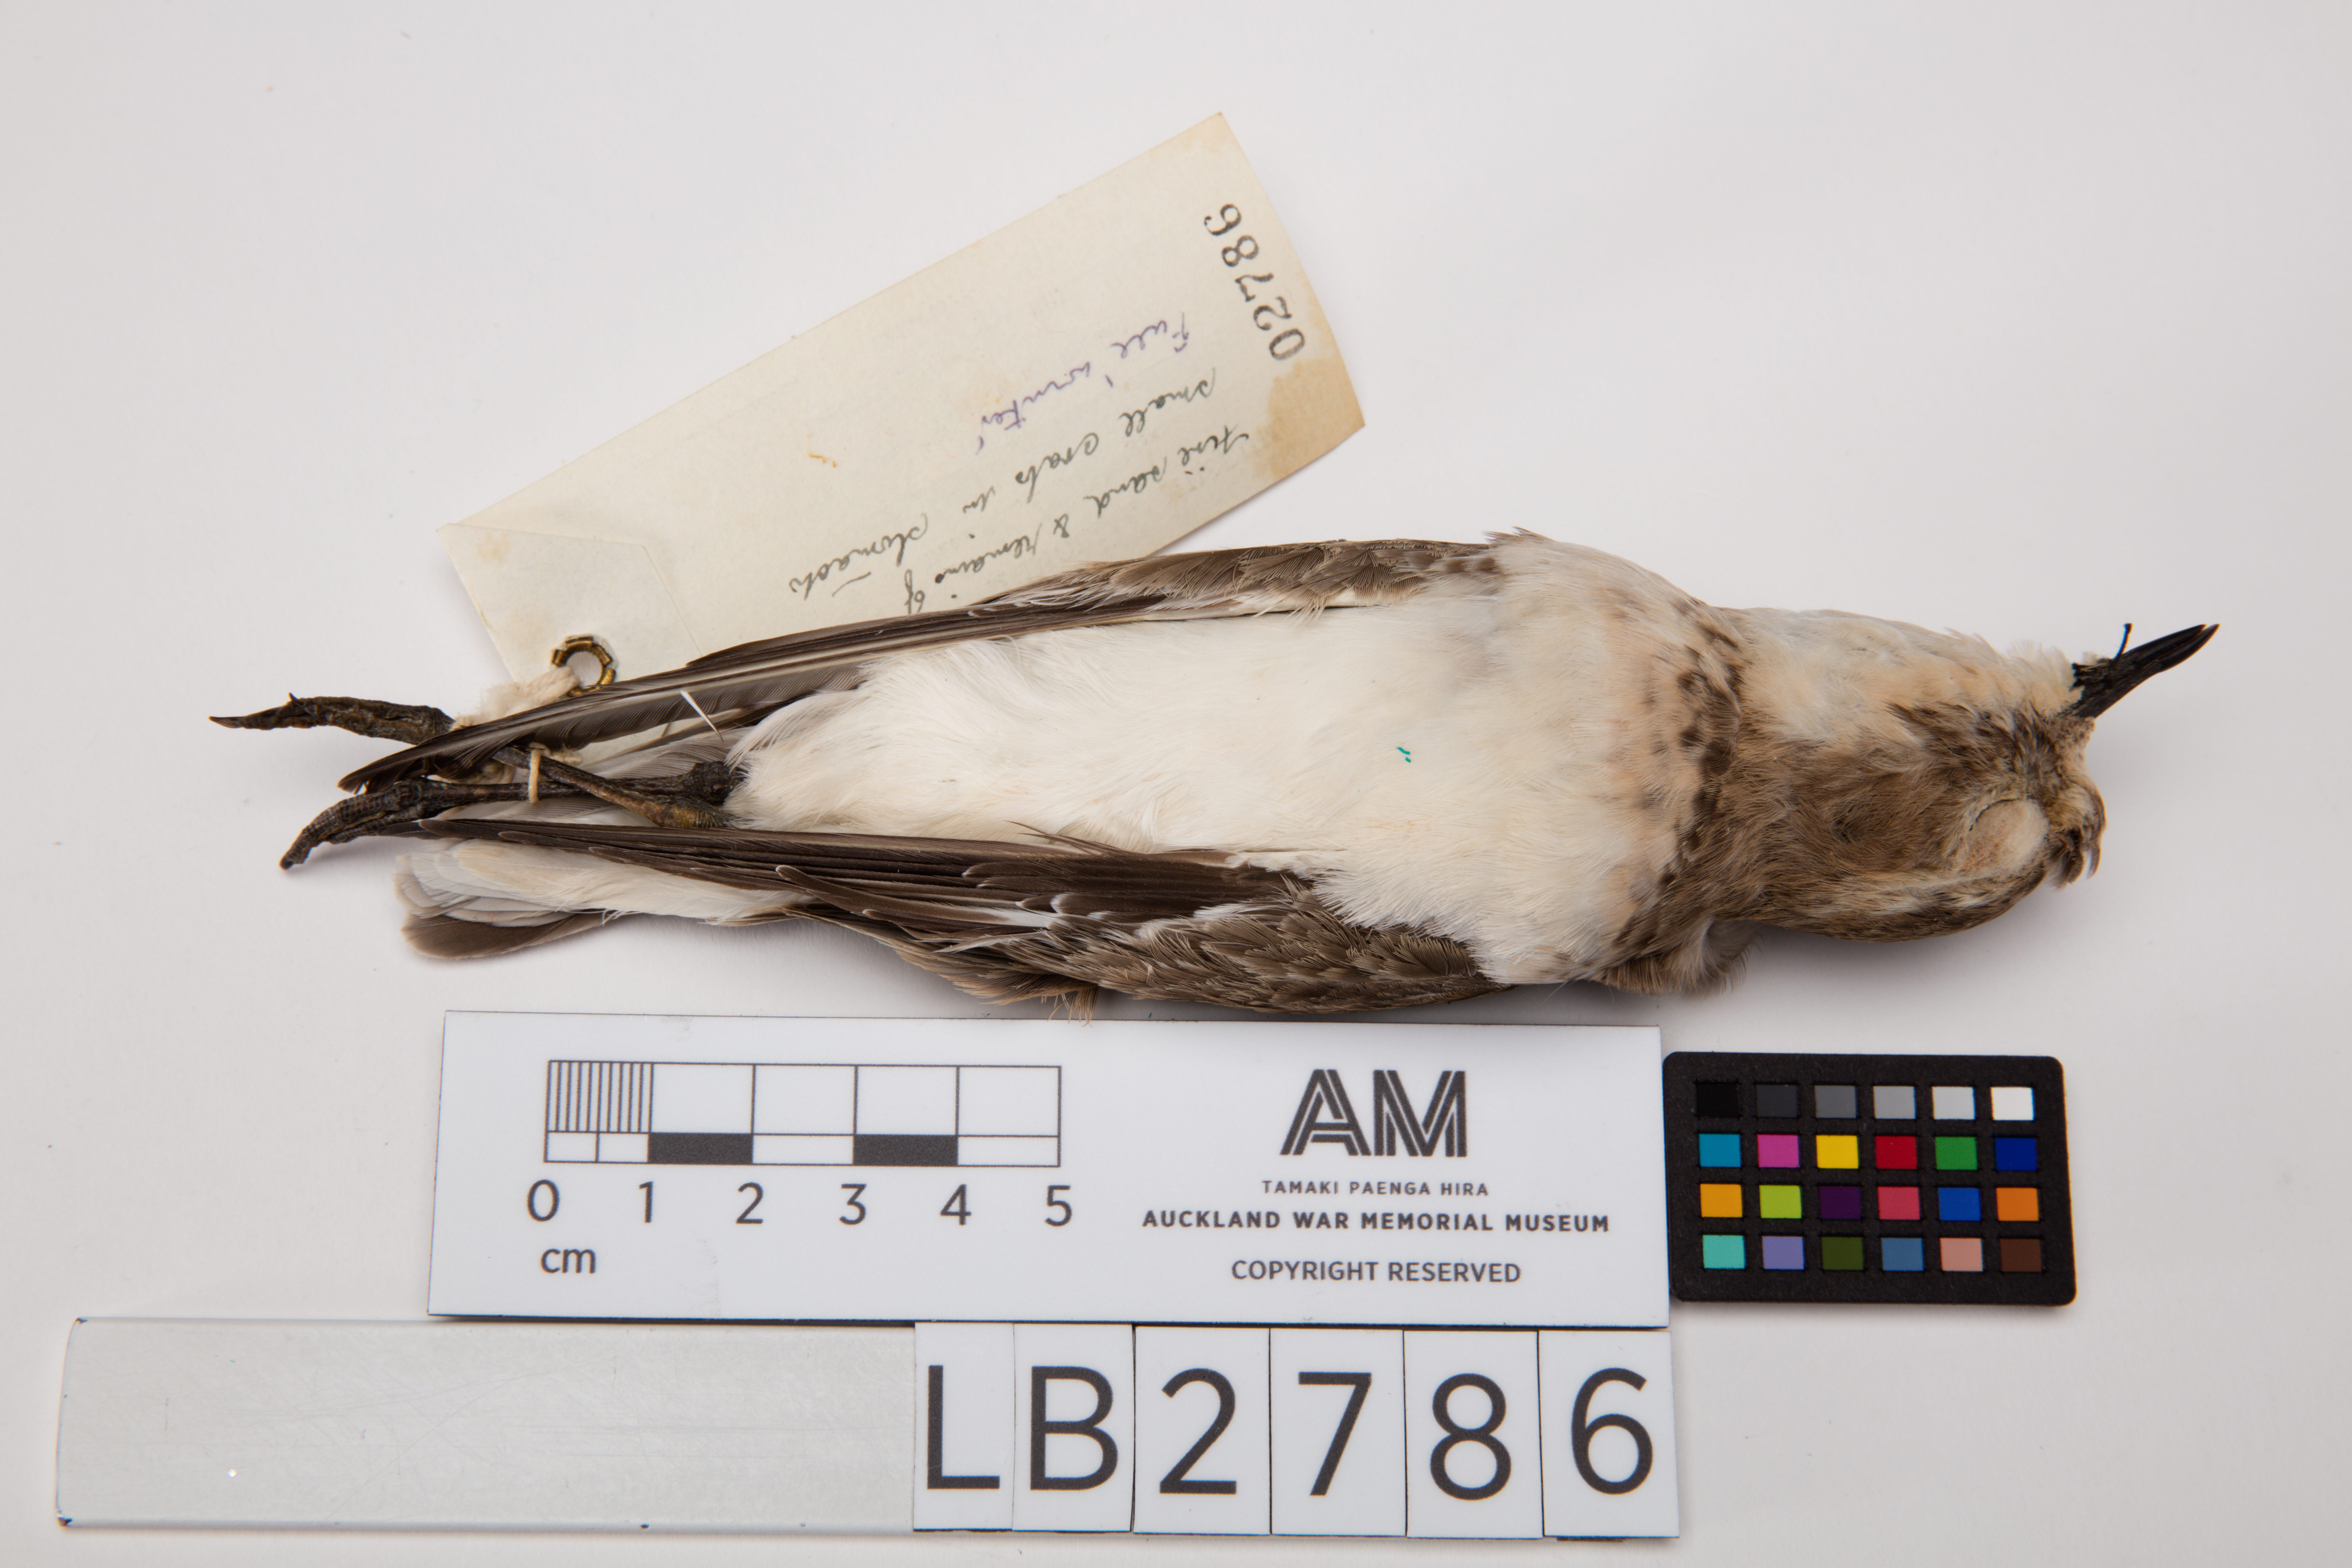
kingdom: Animalia
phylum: Chordata
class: Aves
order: Charadriiformes
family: Charadriidae
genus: Charadrius
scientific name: Charadrius bicinctus
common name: Double-banded plover
